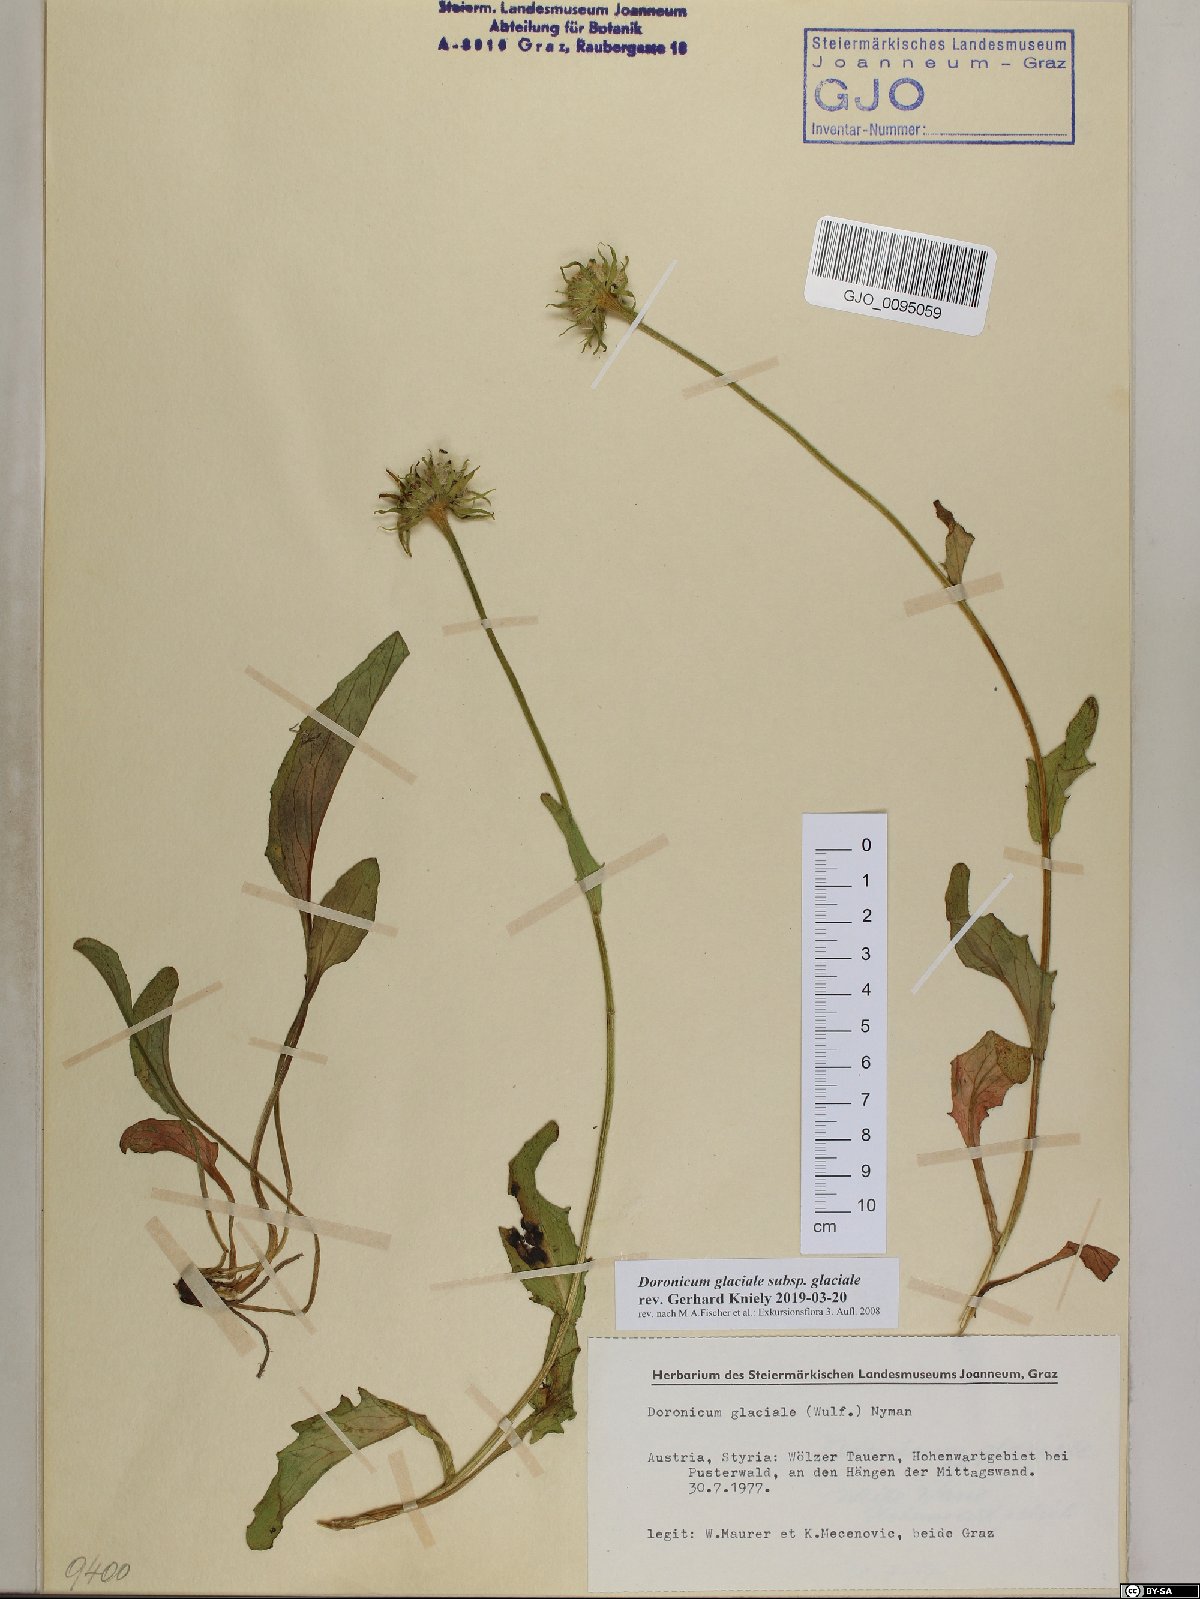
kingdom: Plantae
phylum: Tracheophyta
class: Magnoliopsida
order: Asterales
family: Asteraceae
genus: Doronicum
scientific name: Doronicum glaciale
